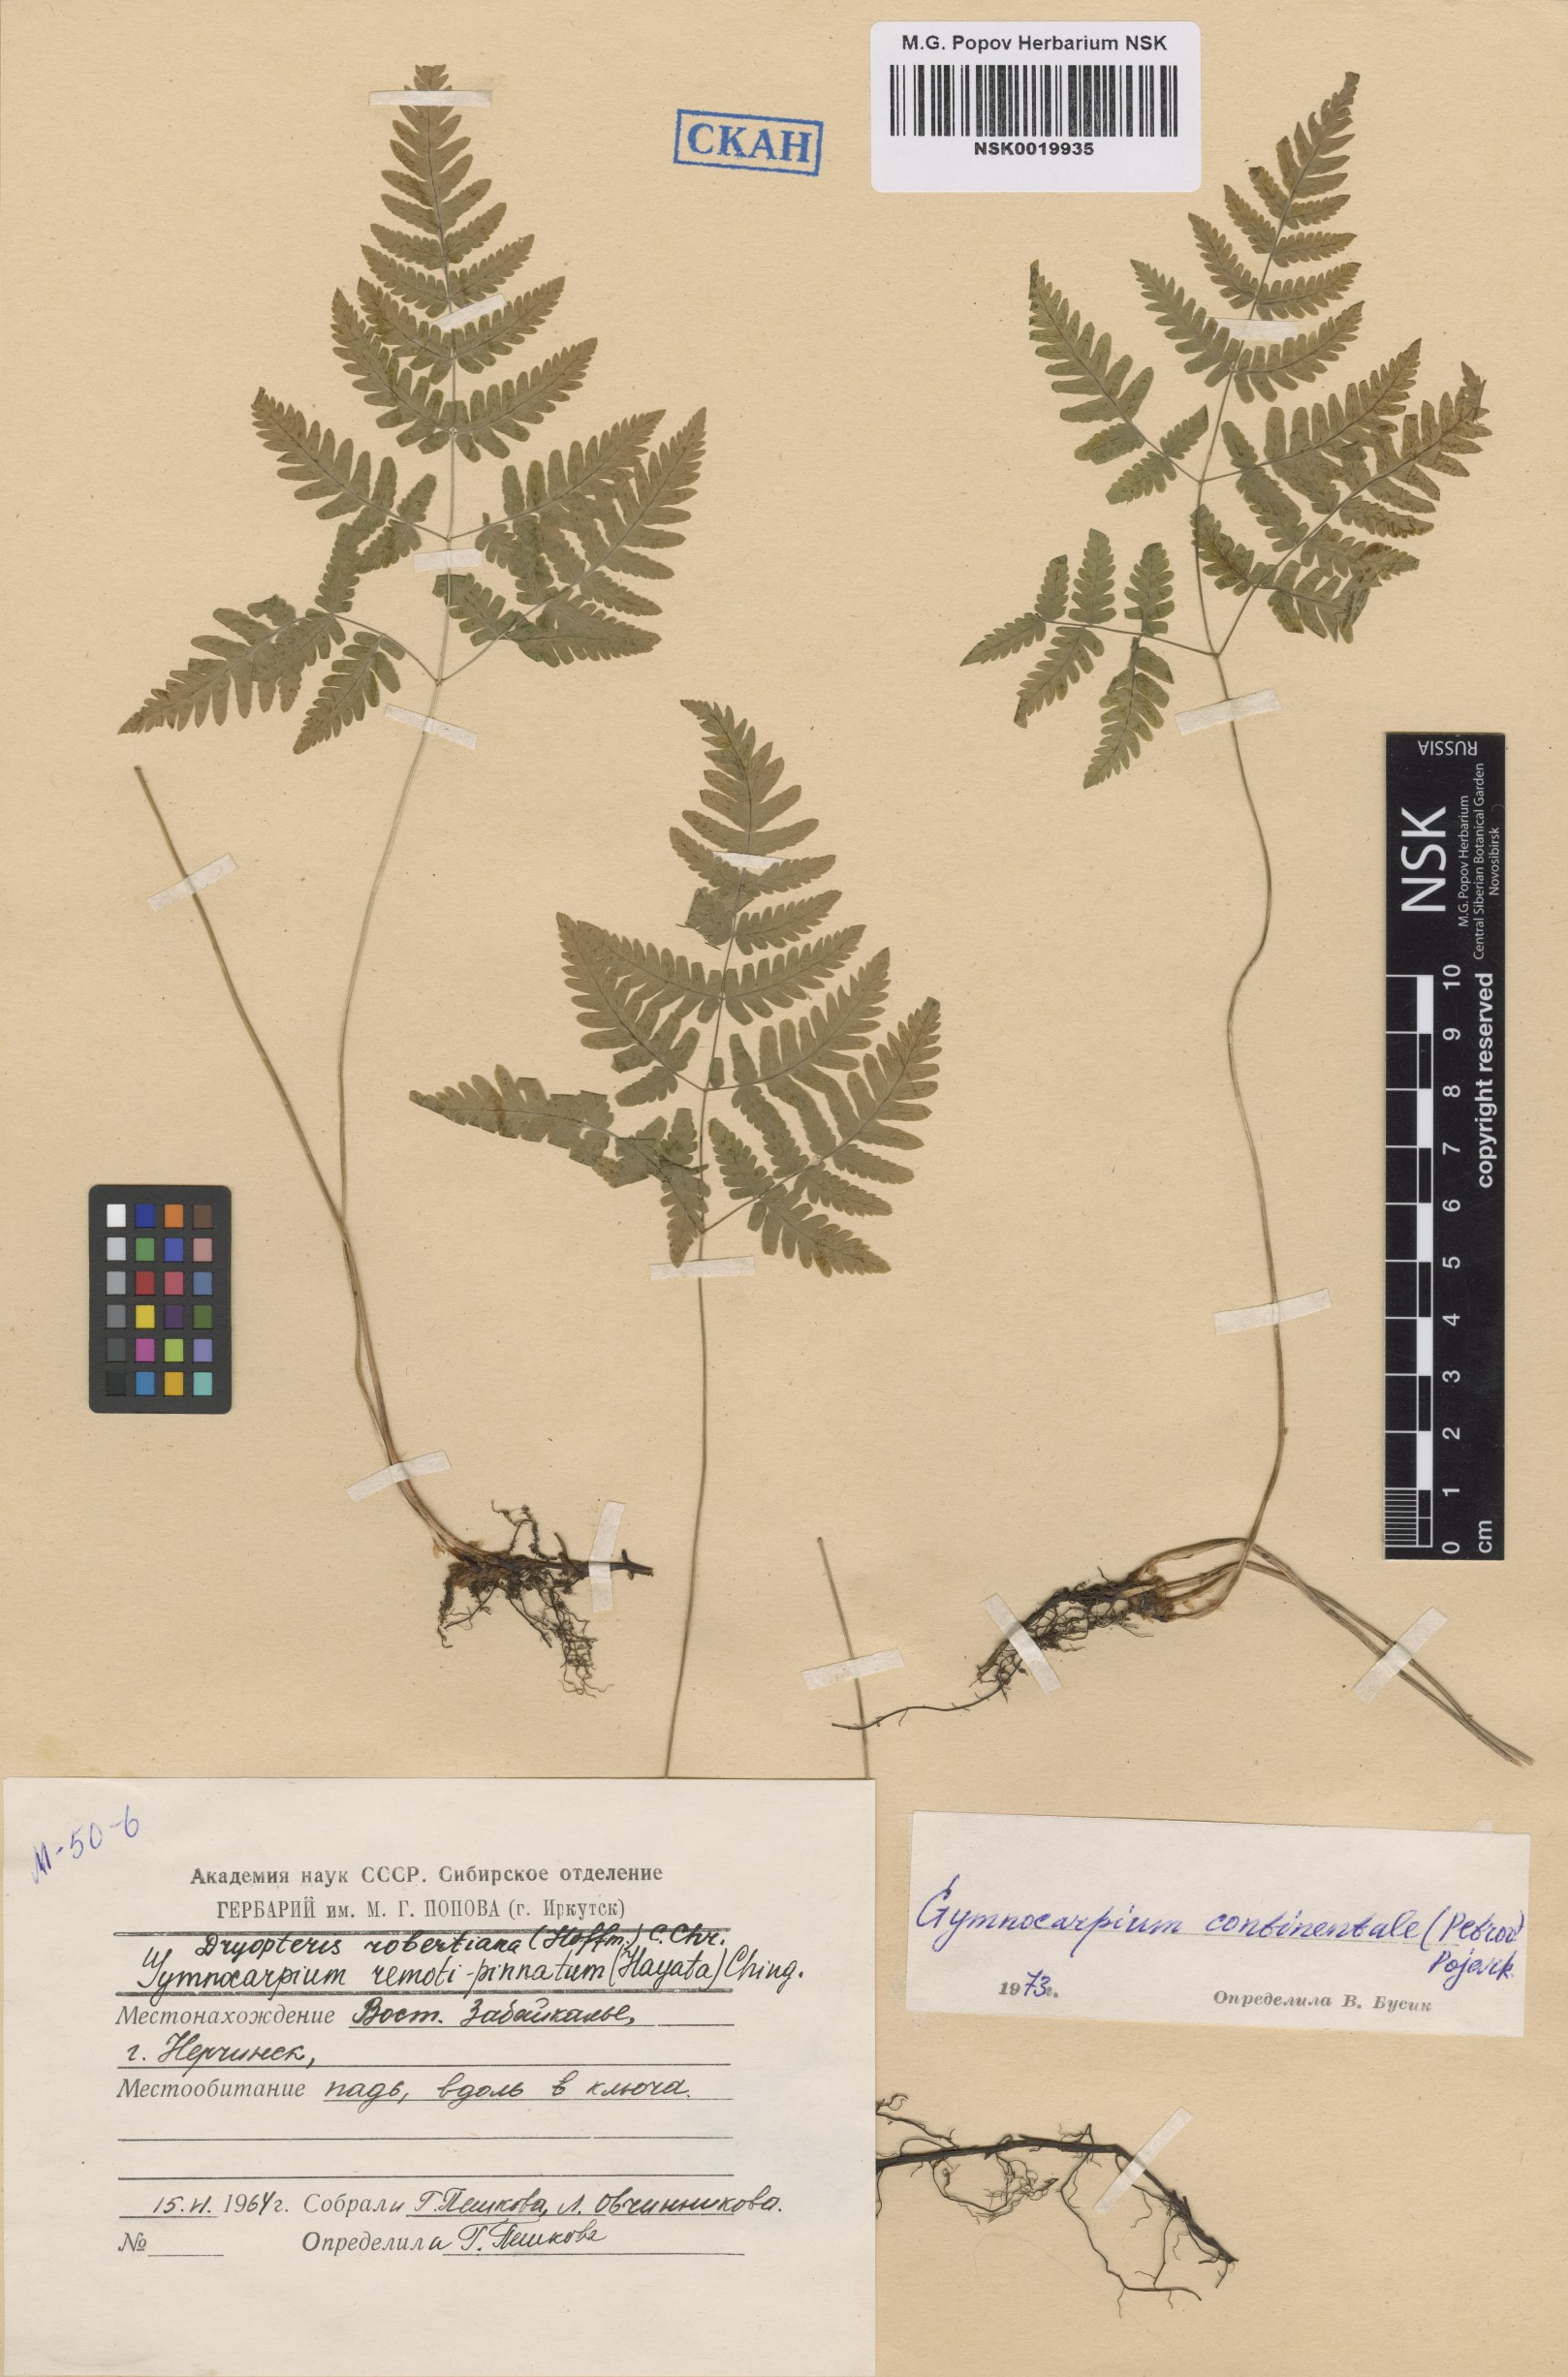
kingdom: Plantae
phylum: Tracheophyta
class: Polypodiopsida
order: Polypodiales
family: Cystopteridaceae
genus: Gymnocarpium
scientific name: Gymnocarpium continentale
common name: Asian oak fern
